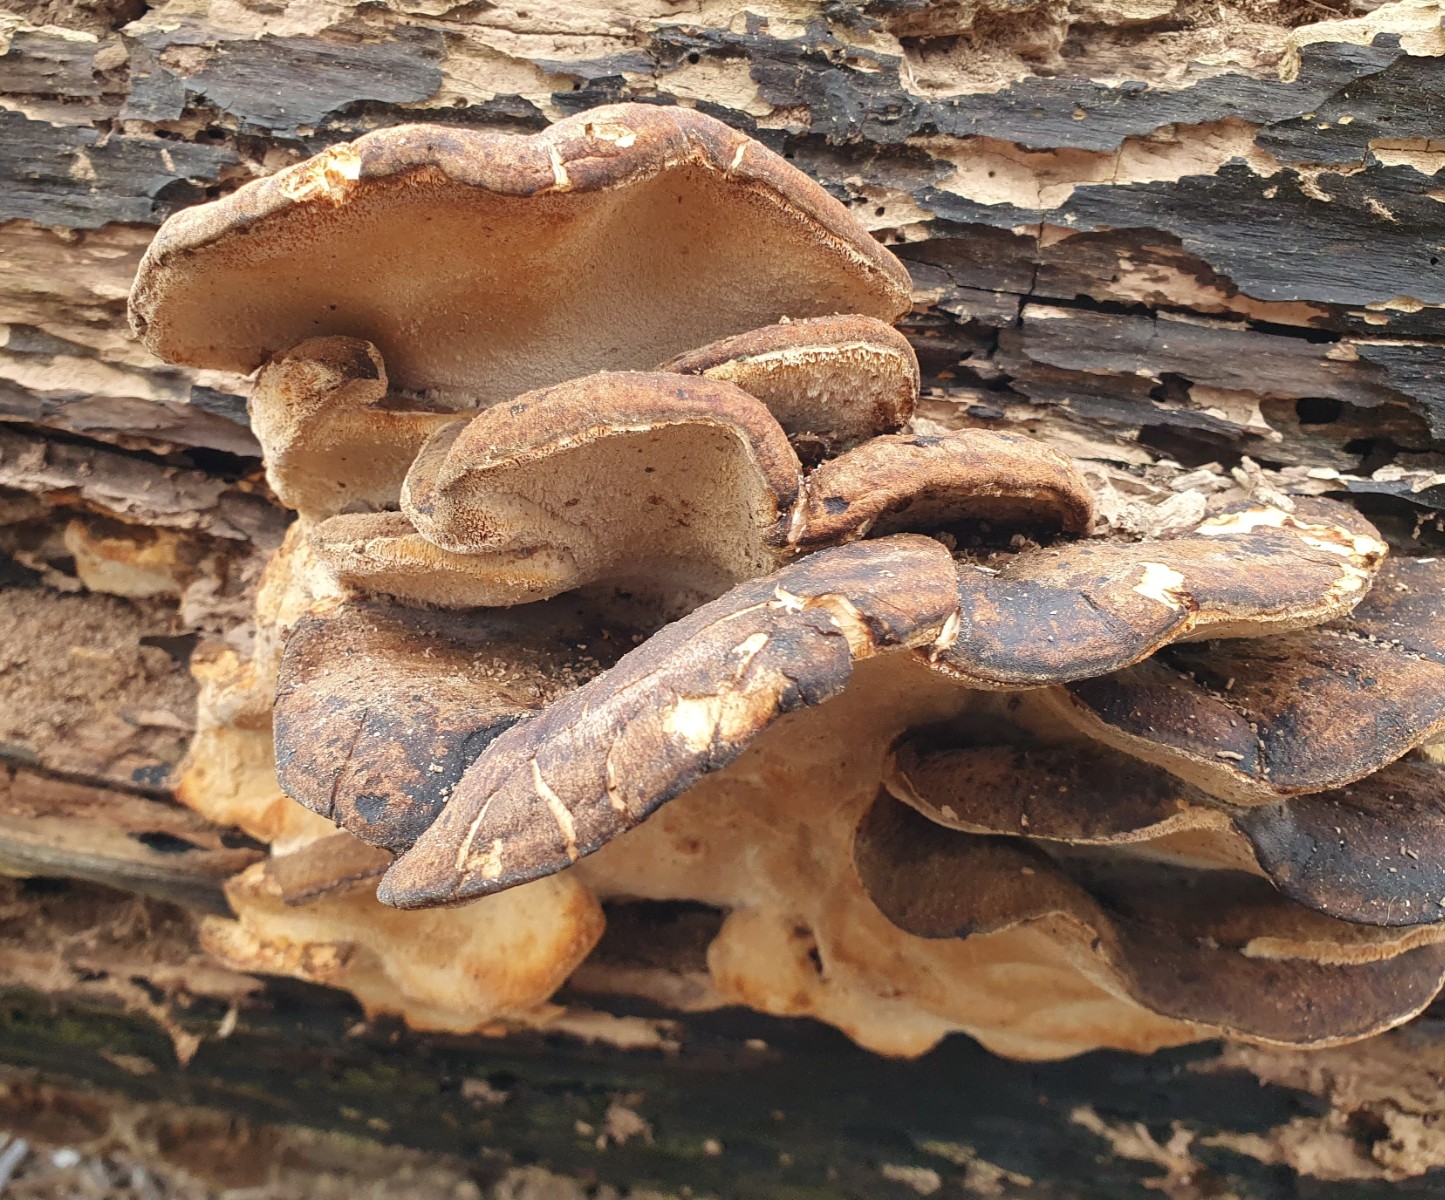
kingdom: Fungi
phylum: Basidiomycota
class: Agaricomycetes
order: Polyporales
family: Ischnodermataceae
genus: Ischnoderma
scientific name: Ischnoderma resinosum
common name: løv-tjæreporesvamp
